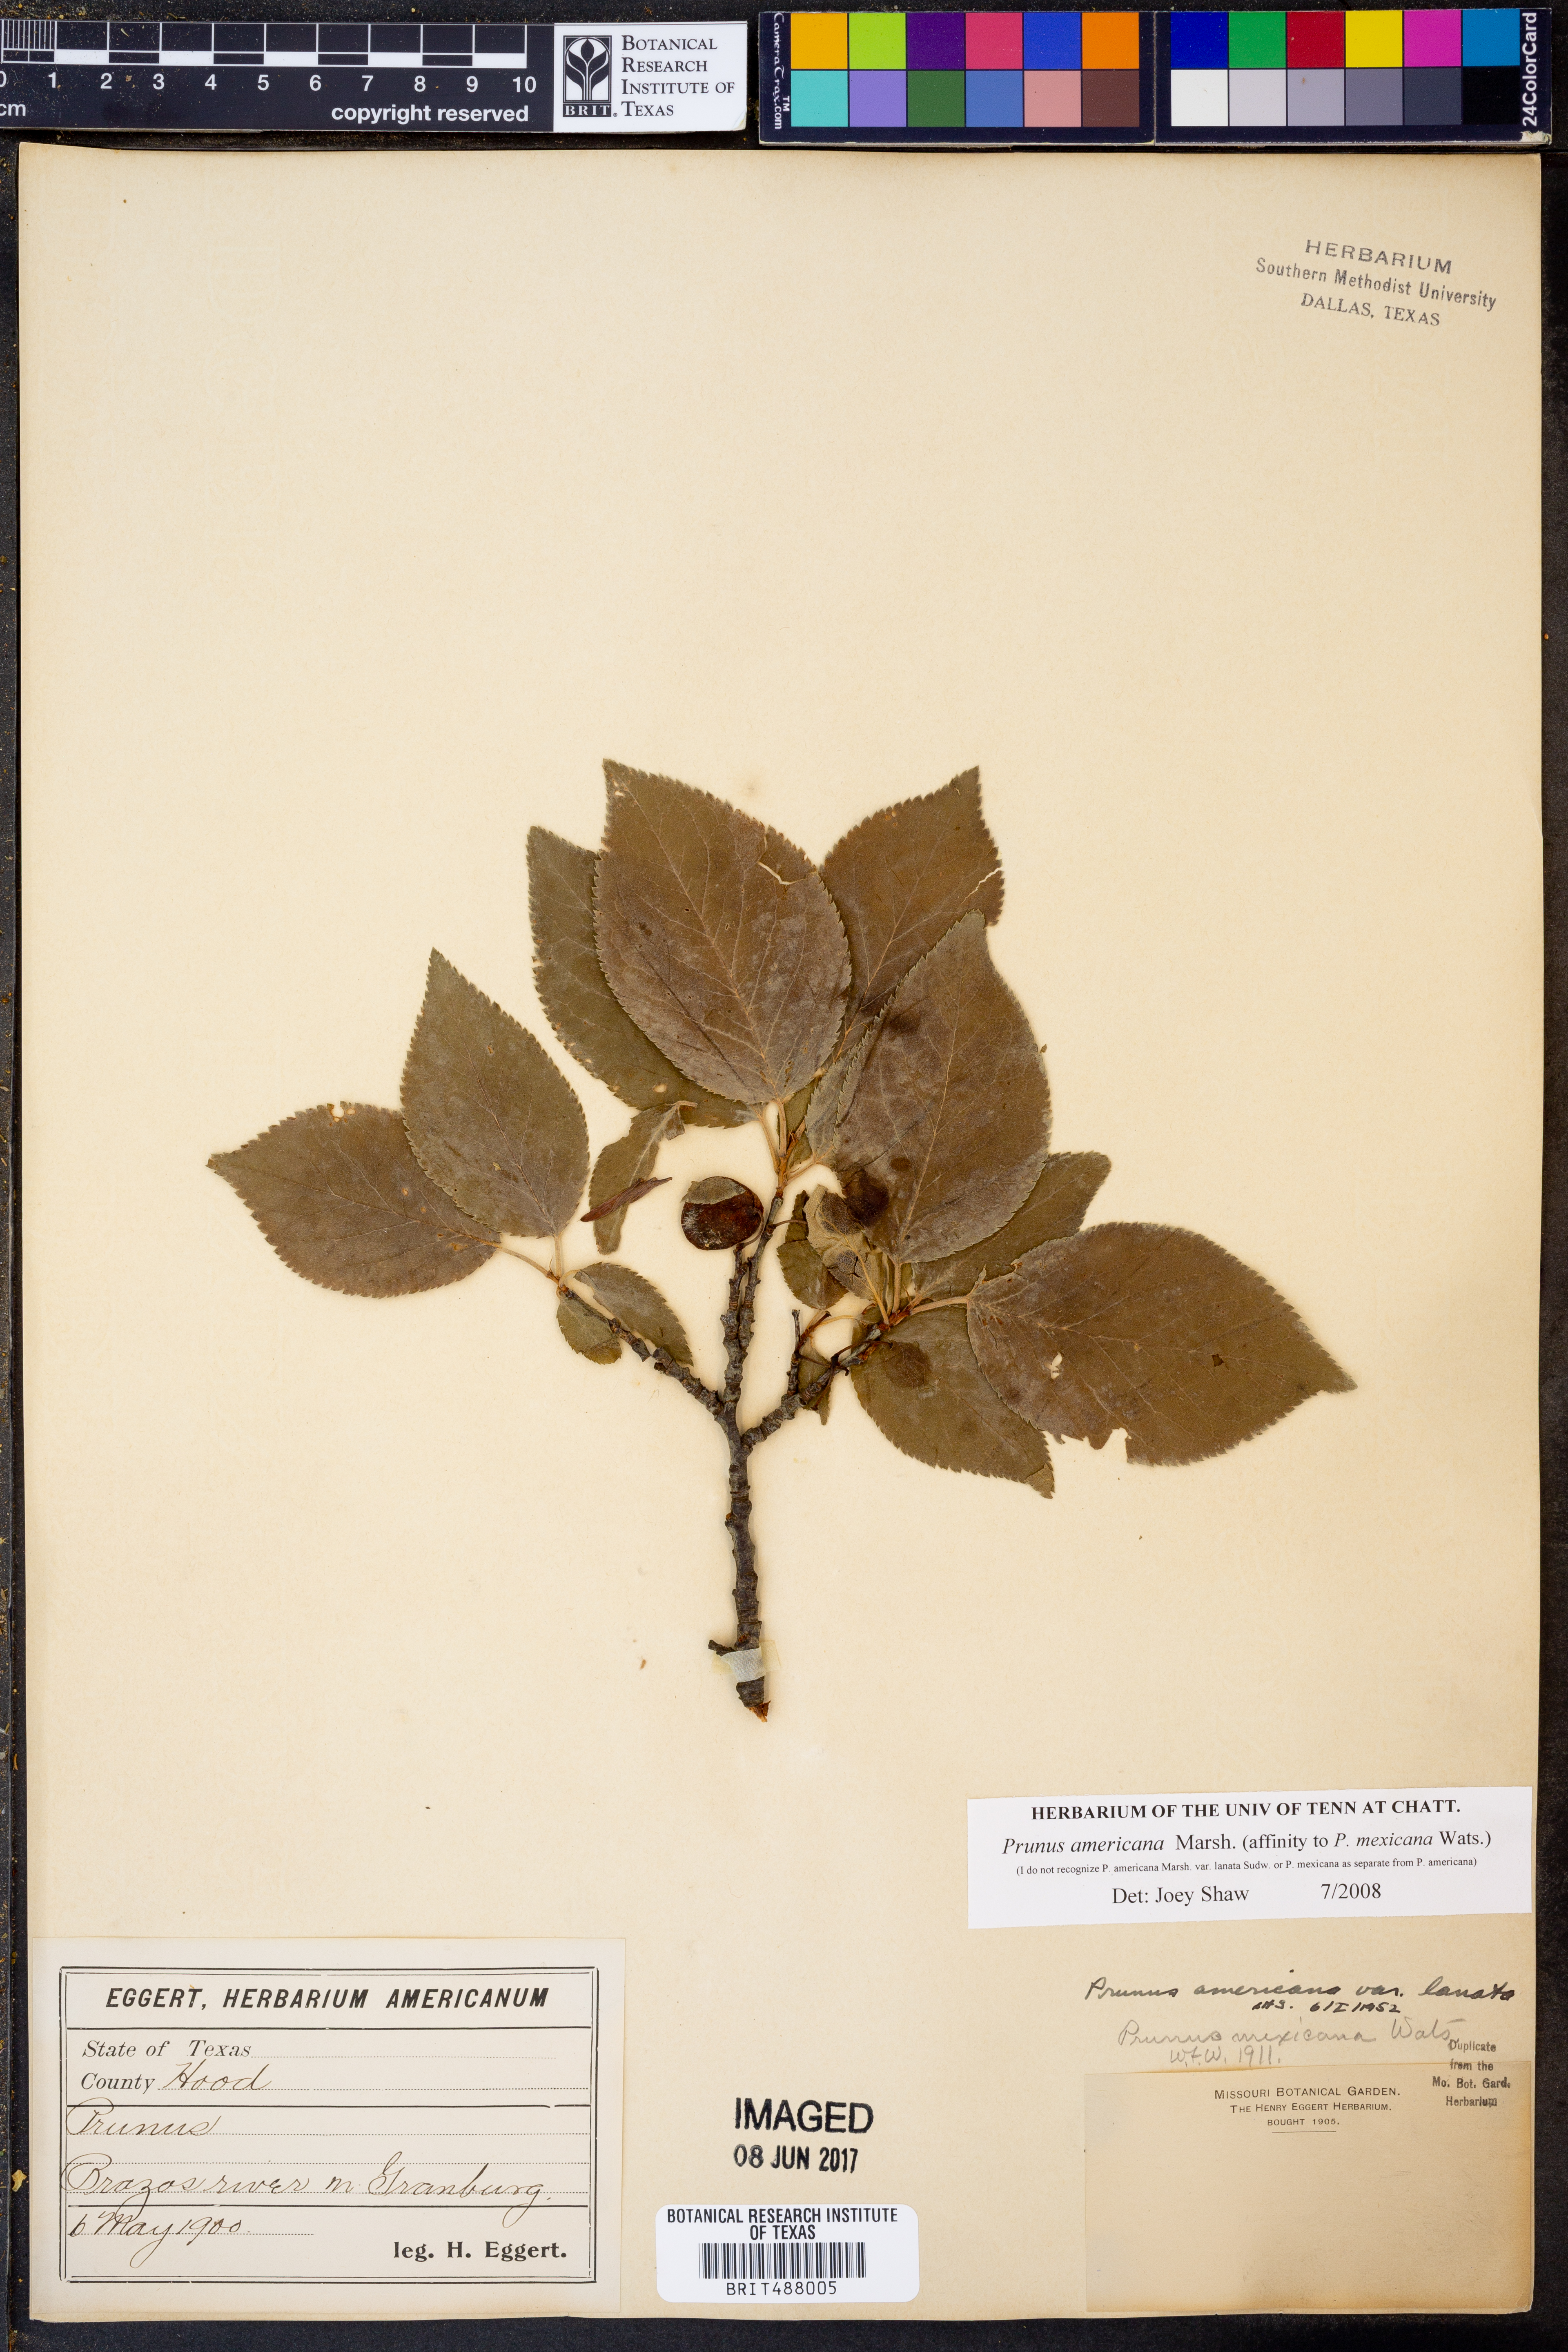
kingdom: Plantae
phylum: Tracheophyta
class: Magnoliopsida
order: Rosales
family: Rosaceae
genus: Prunus
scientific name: Prunus americana
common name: American plum
